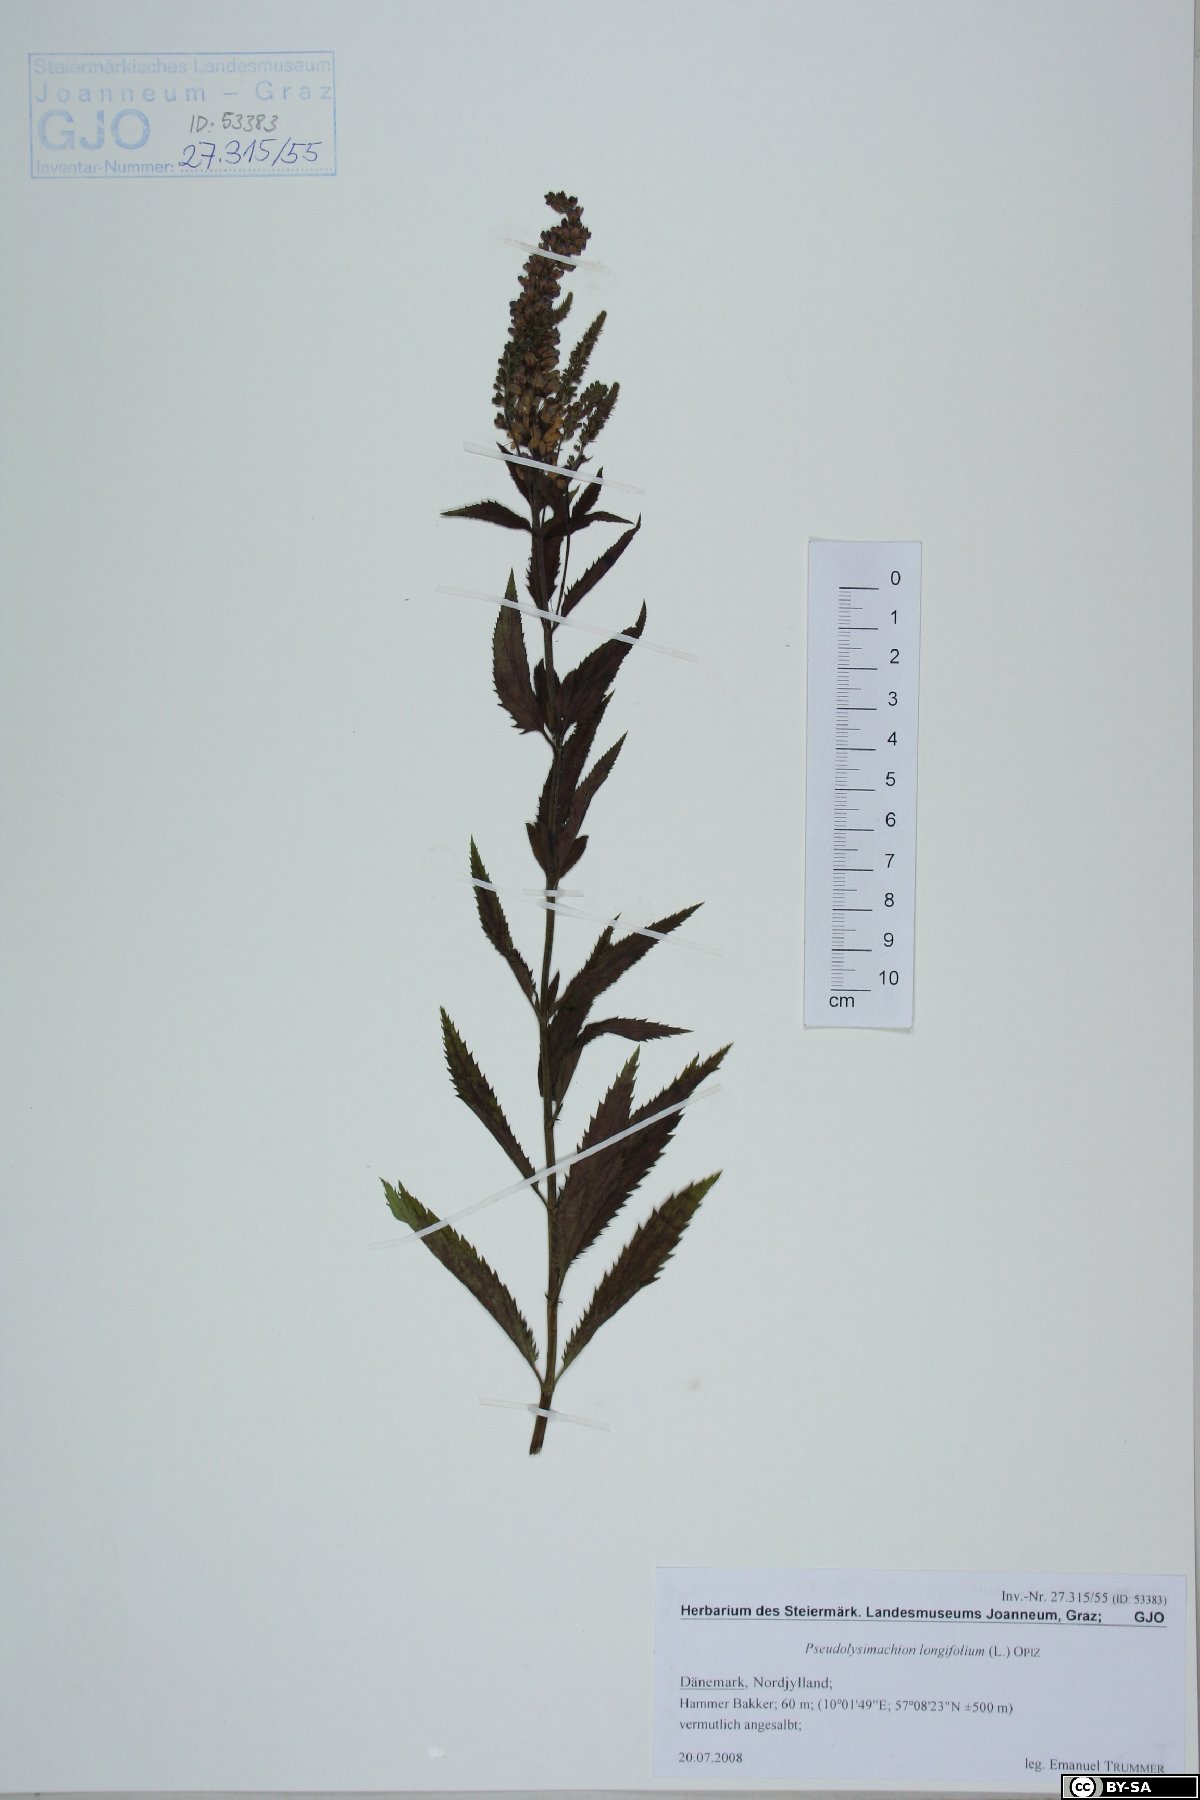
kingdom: Plantae
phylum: Tracheophyta
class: Magnoliopsida
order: Lamiales
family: Plantaginaceae
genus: Veronica
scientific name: Veronica longifolia
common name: Garden speedwell
